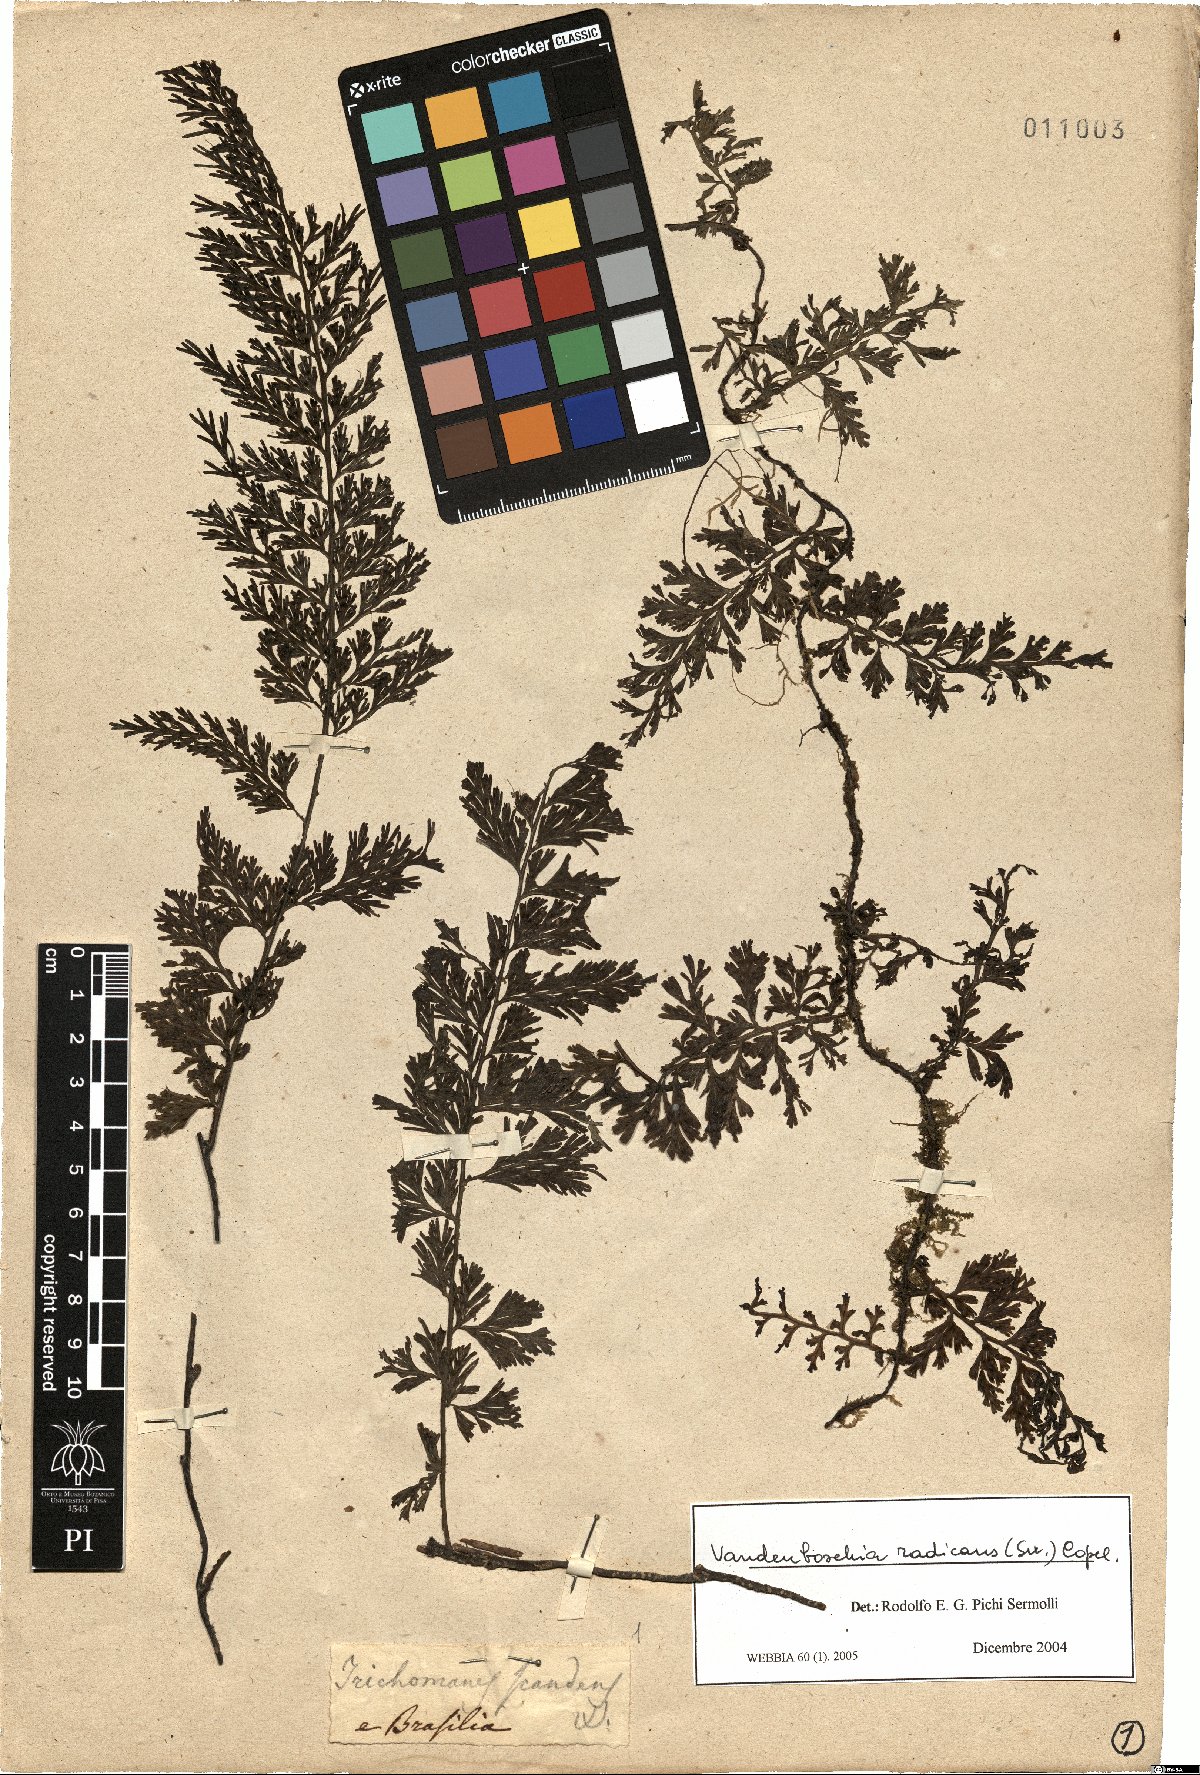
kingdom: Plantae
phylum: Tracheophyta
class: Polypodiopsida
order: Hymenophyllales
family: Hymenophyllaceae
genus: Vandenboschia
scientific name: Vandenboschia radicans
